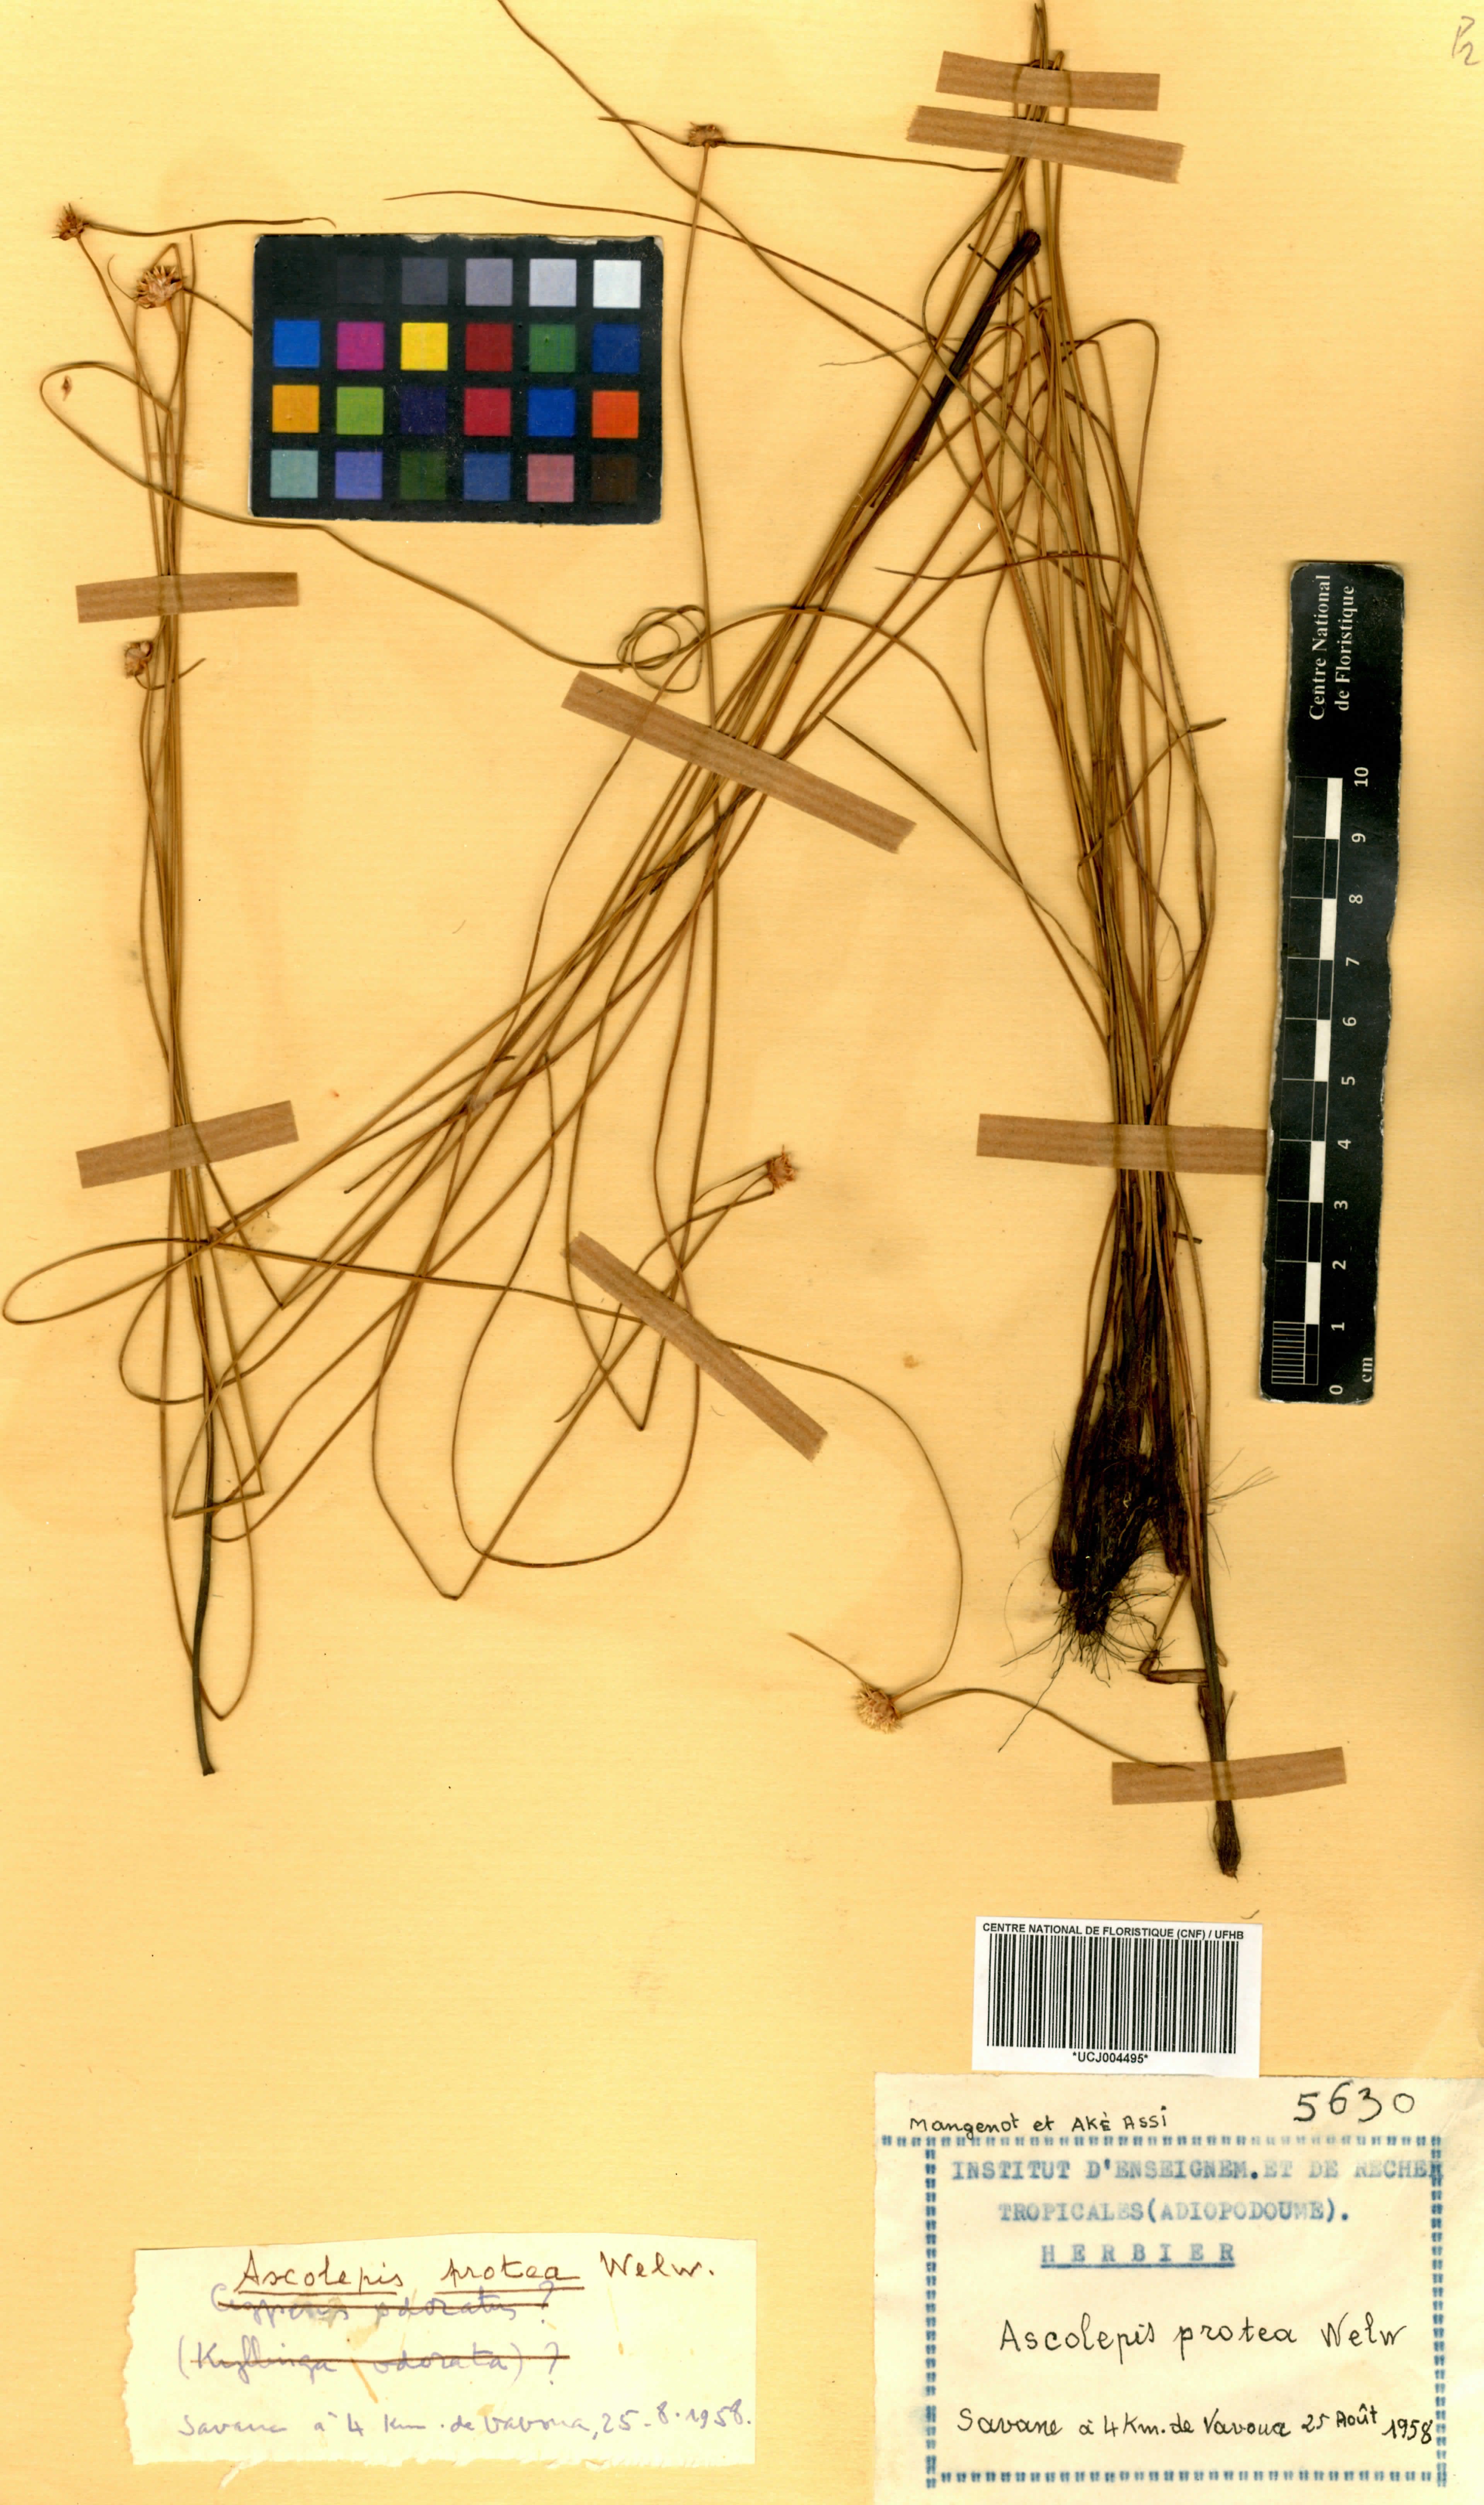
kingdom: Plantae
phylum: Tracheophyta
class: Liliopsida
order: Poales
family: Cyperaceae
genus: Cyperus
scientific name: Cyperus proteus
